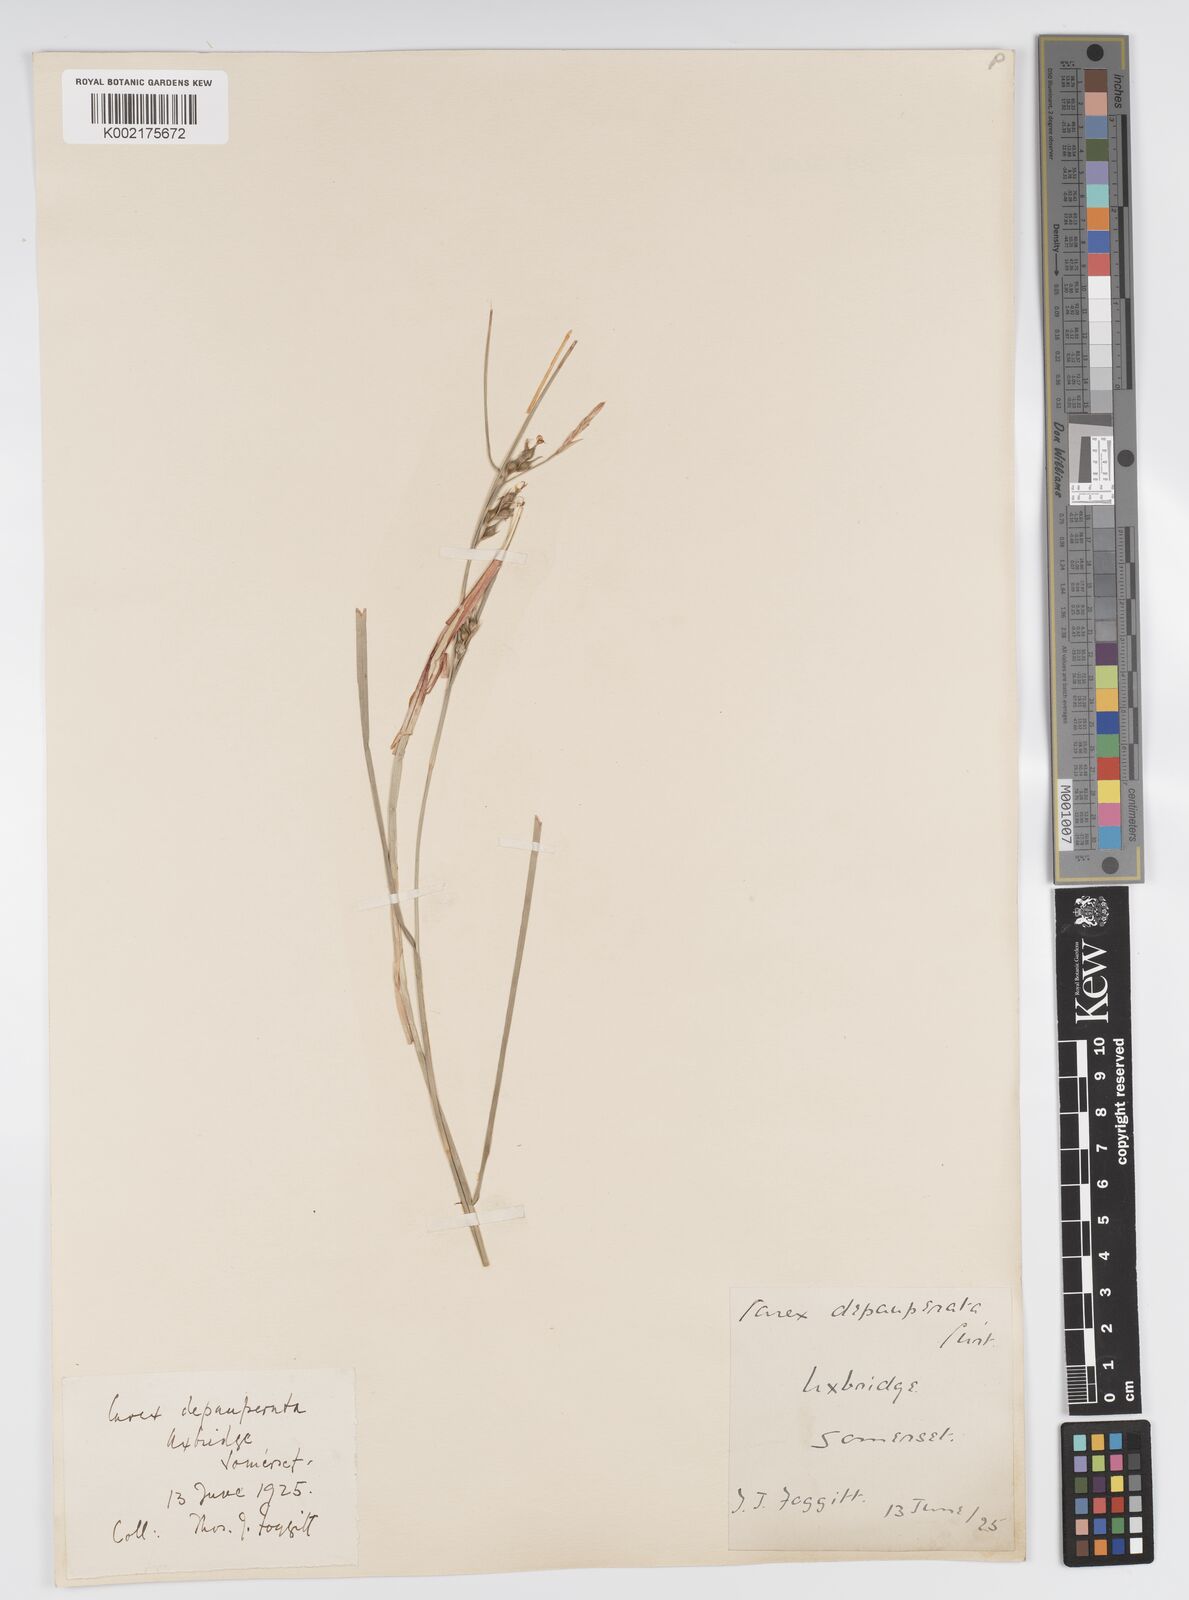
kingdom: Plantae
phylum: Tracheophyta
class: Liliopsida
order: Poales
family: Cyperaceae
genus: Carex
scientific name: Carex depauperata
